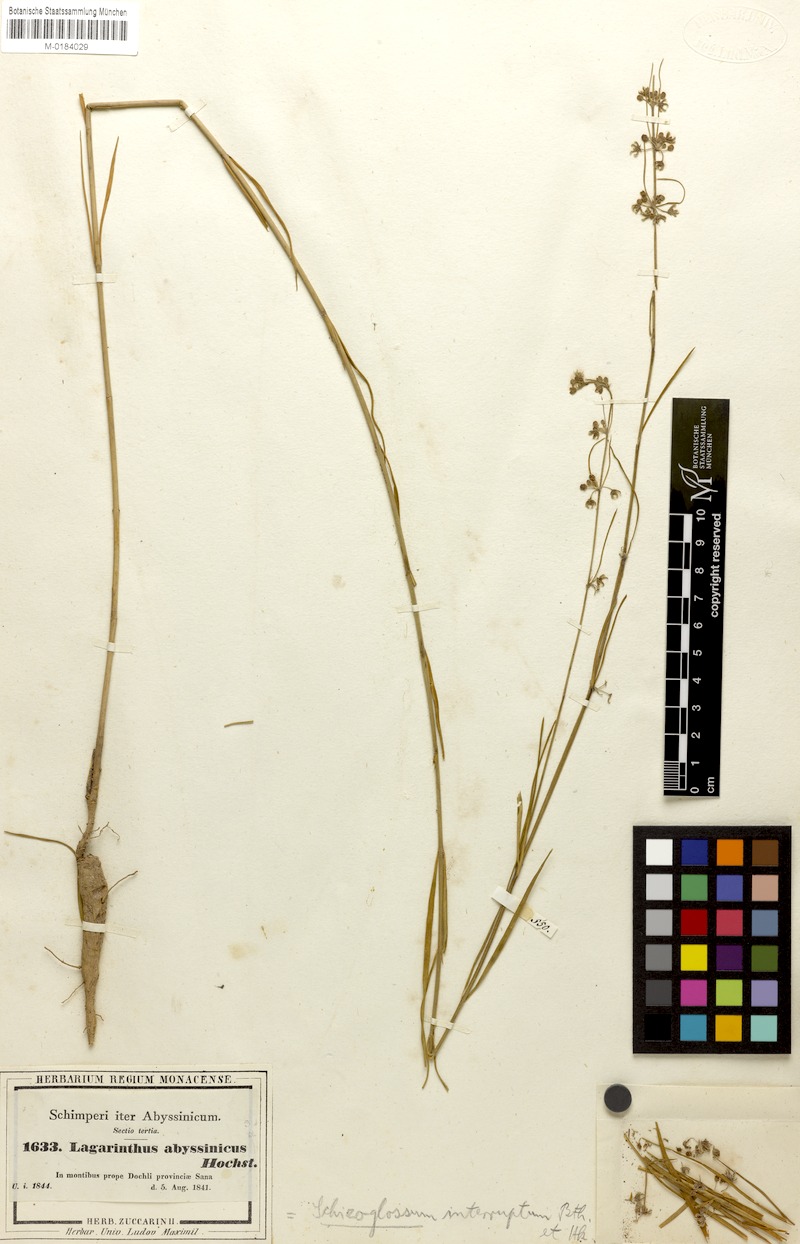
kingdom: Plantae
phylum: Tracheophyta
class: Magnoliopsida
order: Gentianales
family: Apocynaceae
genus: Aspidoglossum
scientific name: Aspidoglossum interruptum
